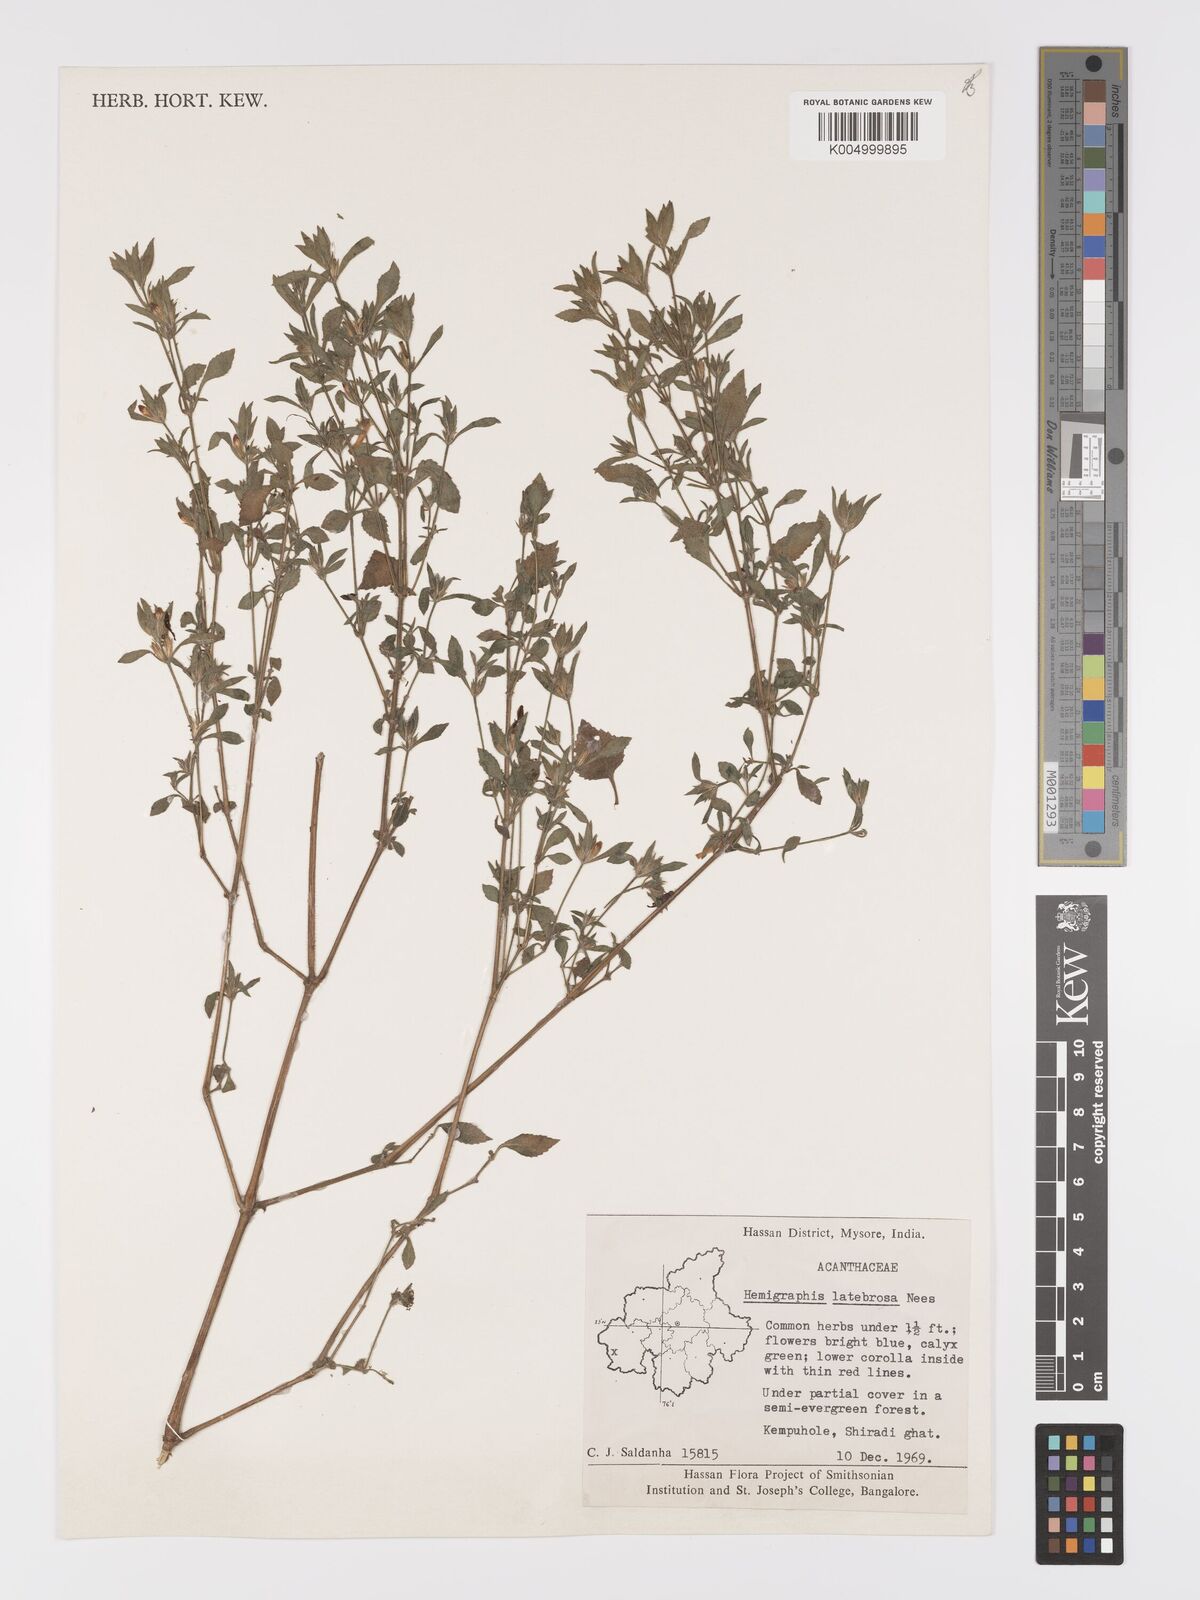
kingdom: Plantae
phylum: Tracheophyta
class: Magnoliopsida
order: Lamiales
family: Acanthaceae
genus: Strobilanthes
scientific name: Strobilanthes latebrosa
